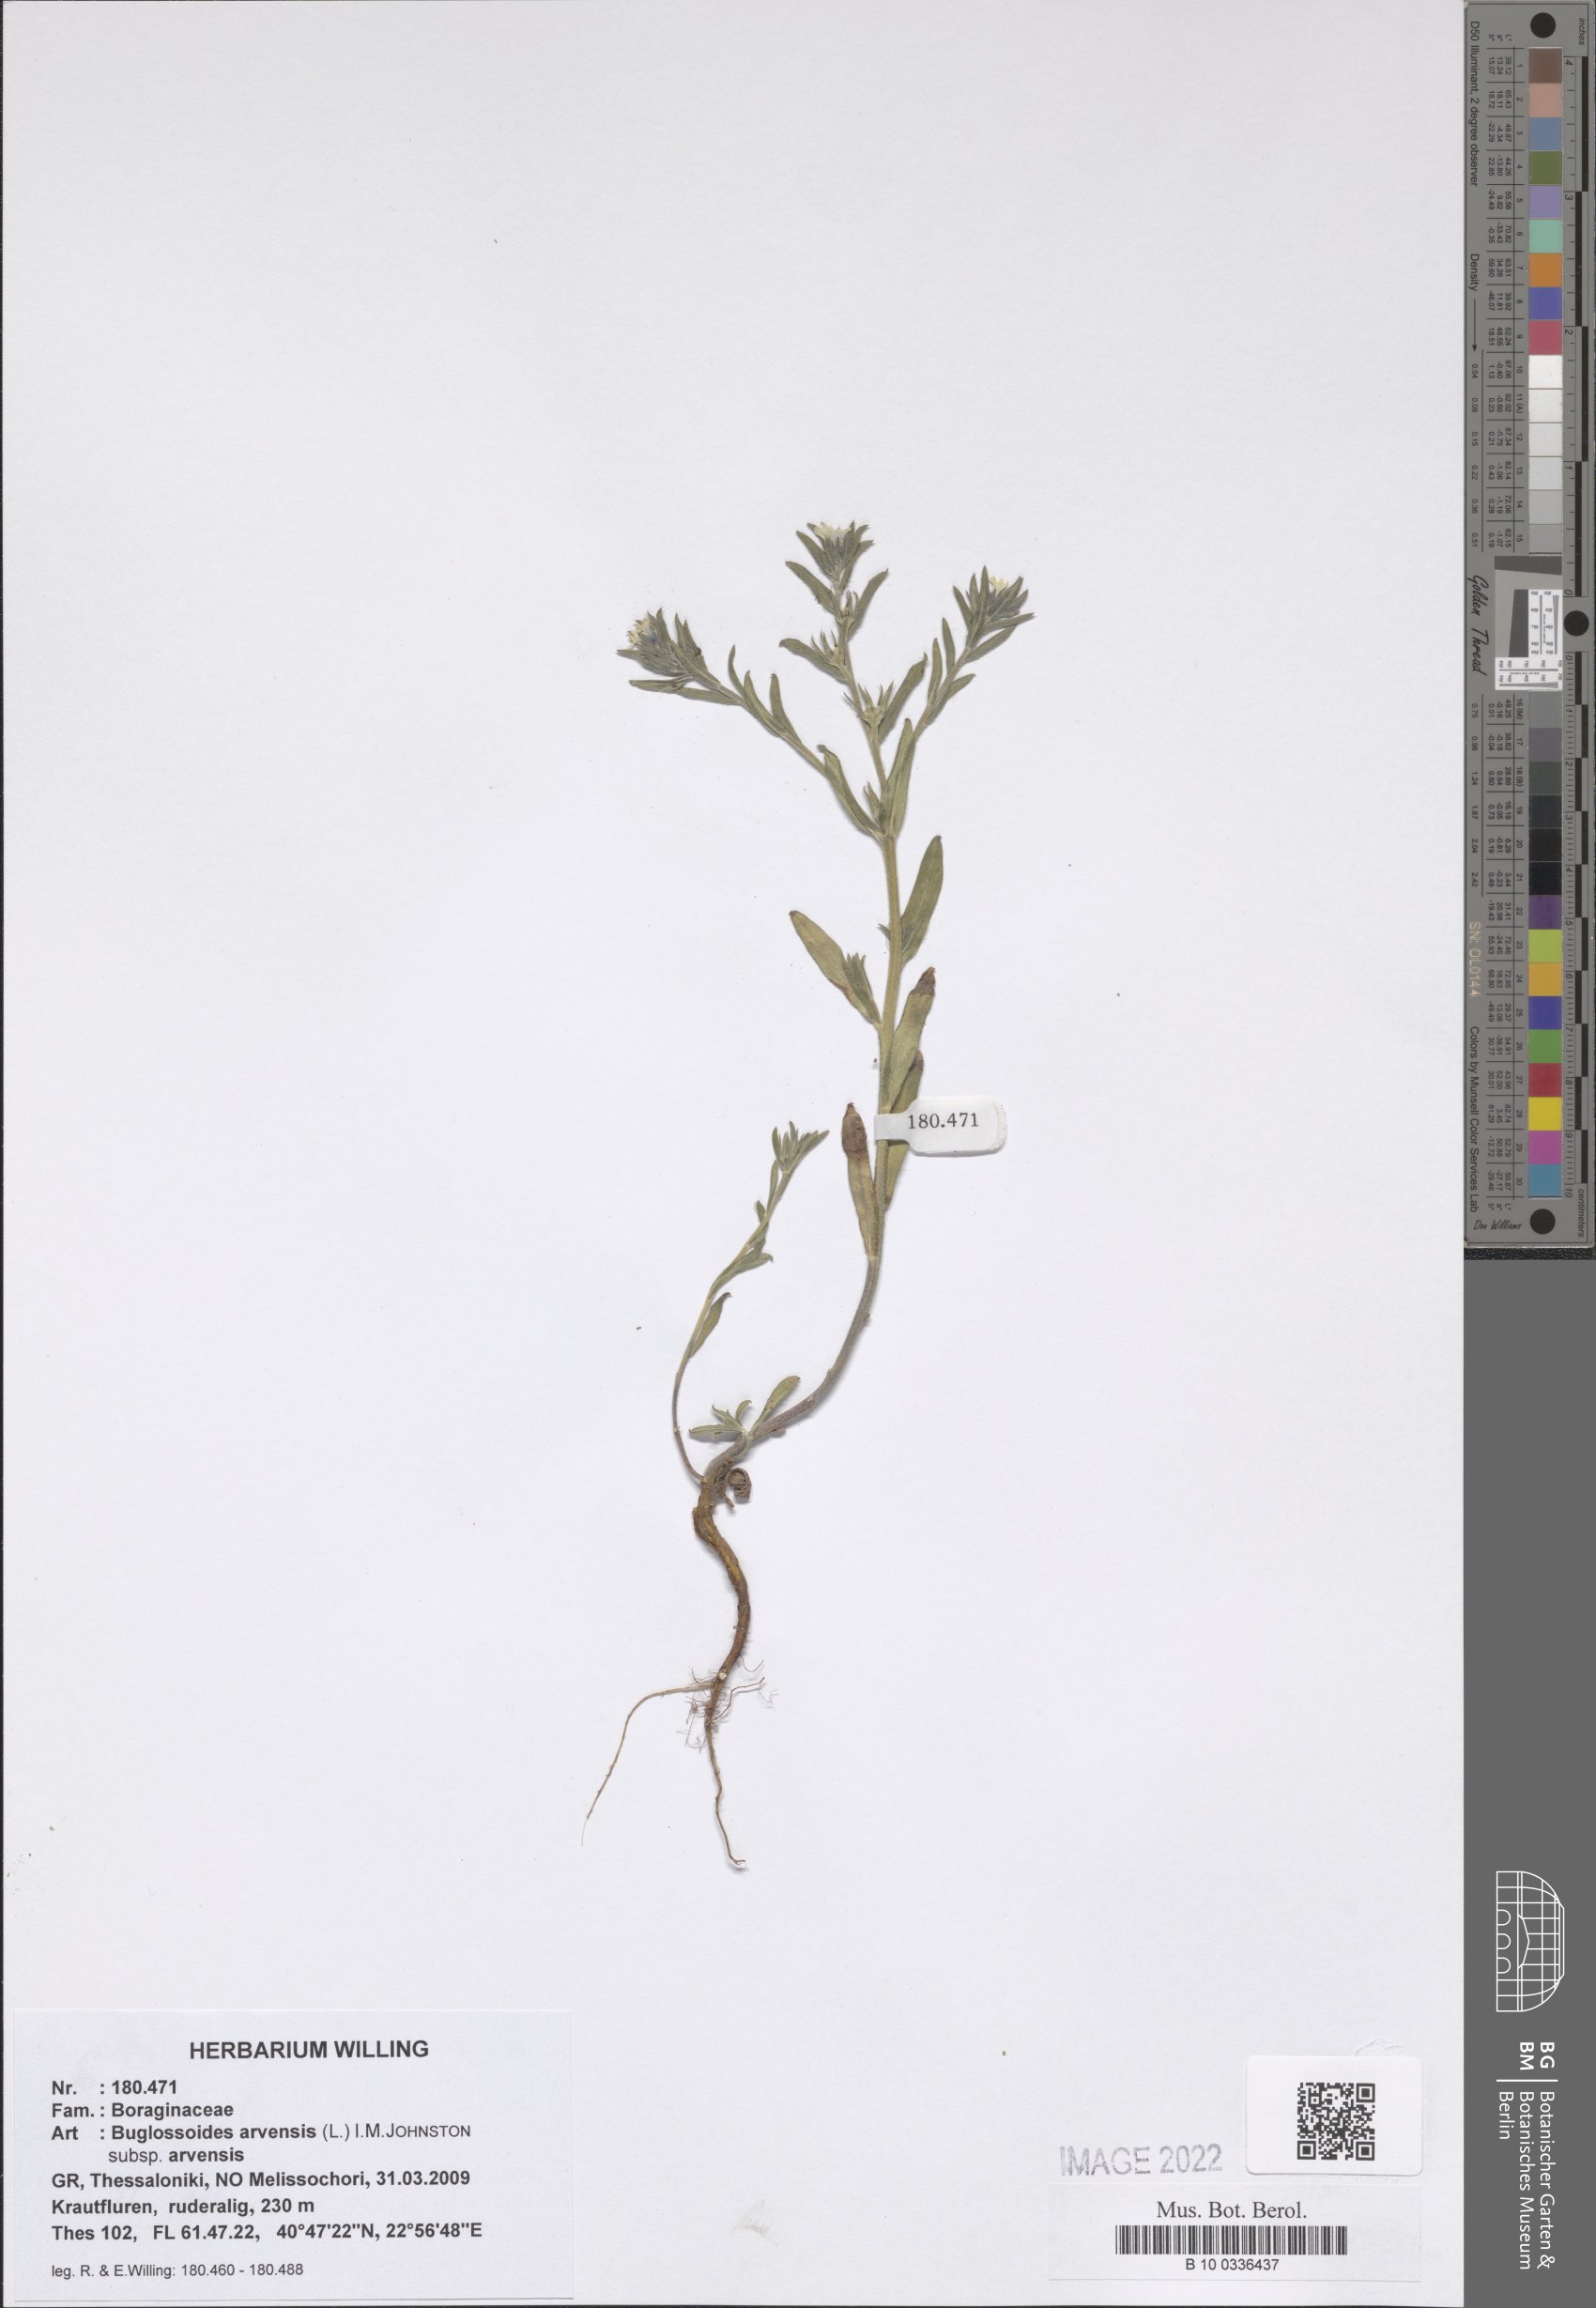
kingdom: Plantae
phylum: Tracheophyta
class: Magnoliopsida
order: Boraginales
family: Boraginaceae
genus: Buglossoides
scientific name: Buglossoides arvensis
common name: Corn gromwell
